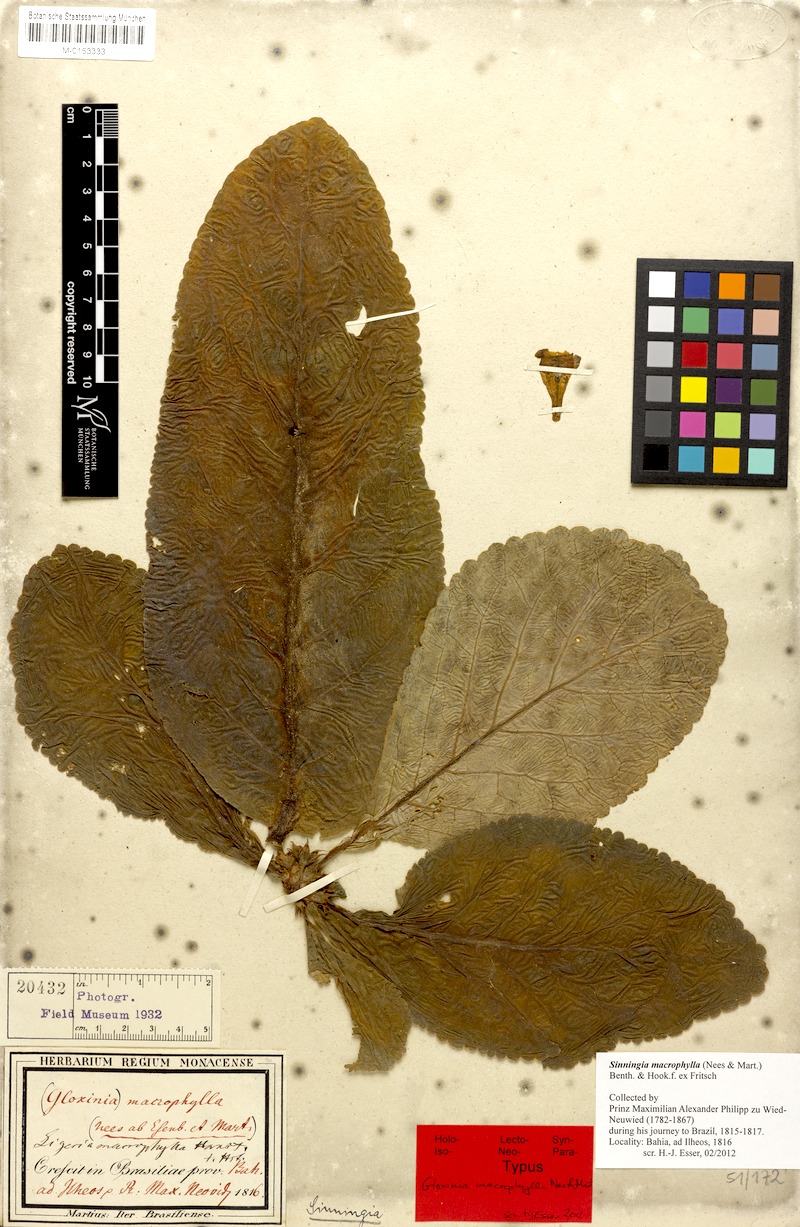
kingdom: Plantae
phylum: Tracheophyta
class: Magnoliopsida
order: Lamiales
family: Gesneriaceae
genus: Sinningia
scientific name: Sinningia macrophylla
